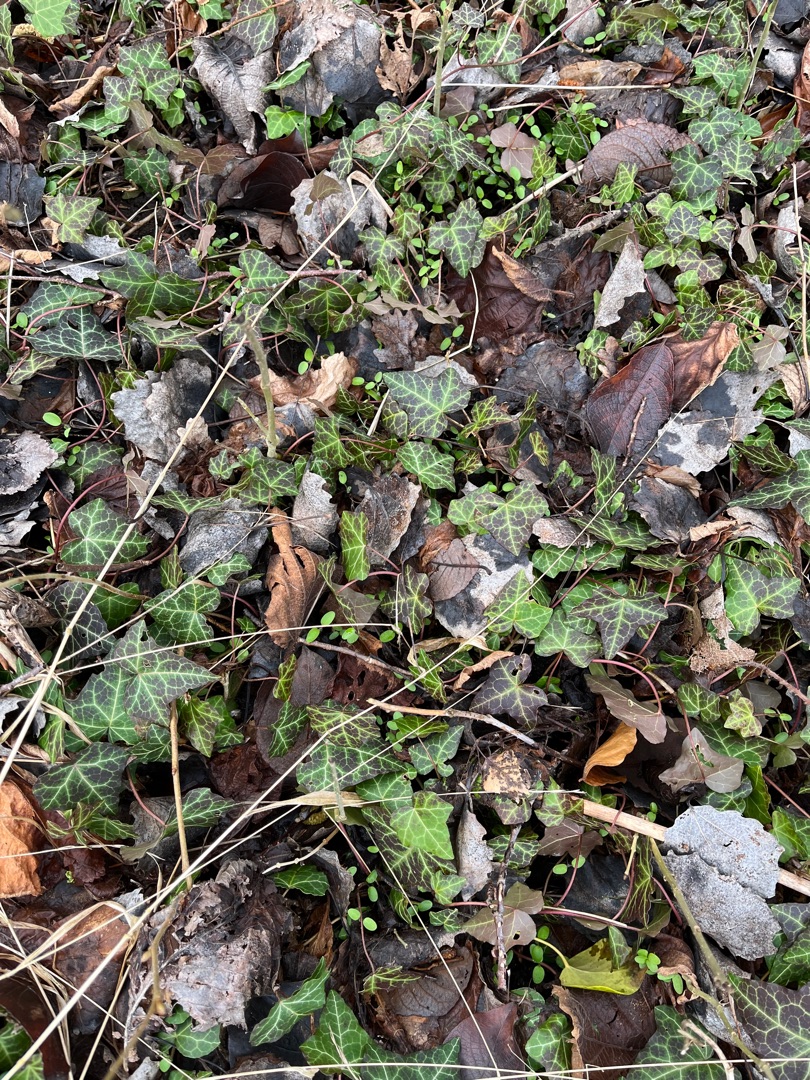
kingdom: Plantae
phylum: Tracheophyta
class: Magnoliopsida
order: Apiales
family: Araliaceae
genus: Hedera
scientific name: Hedera helix
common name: Vedbend
